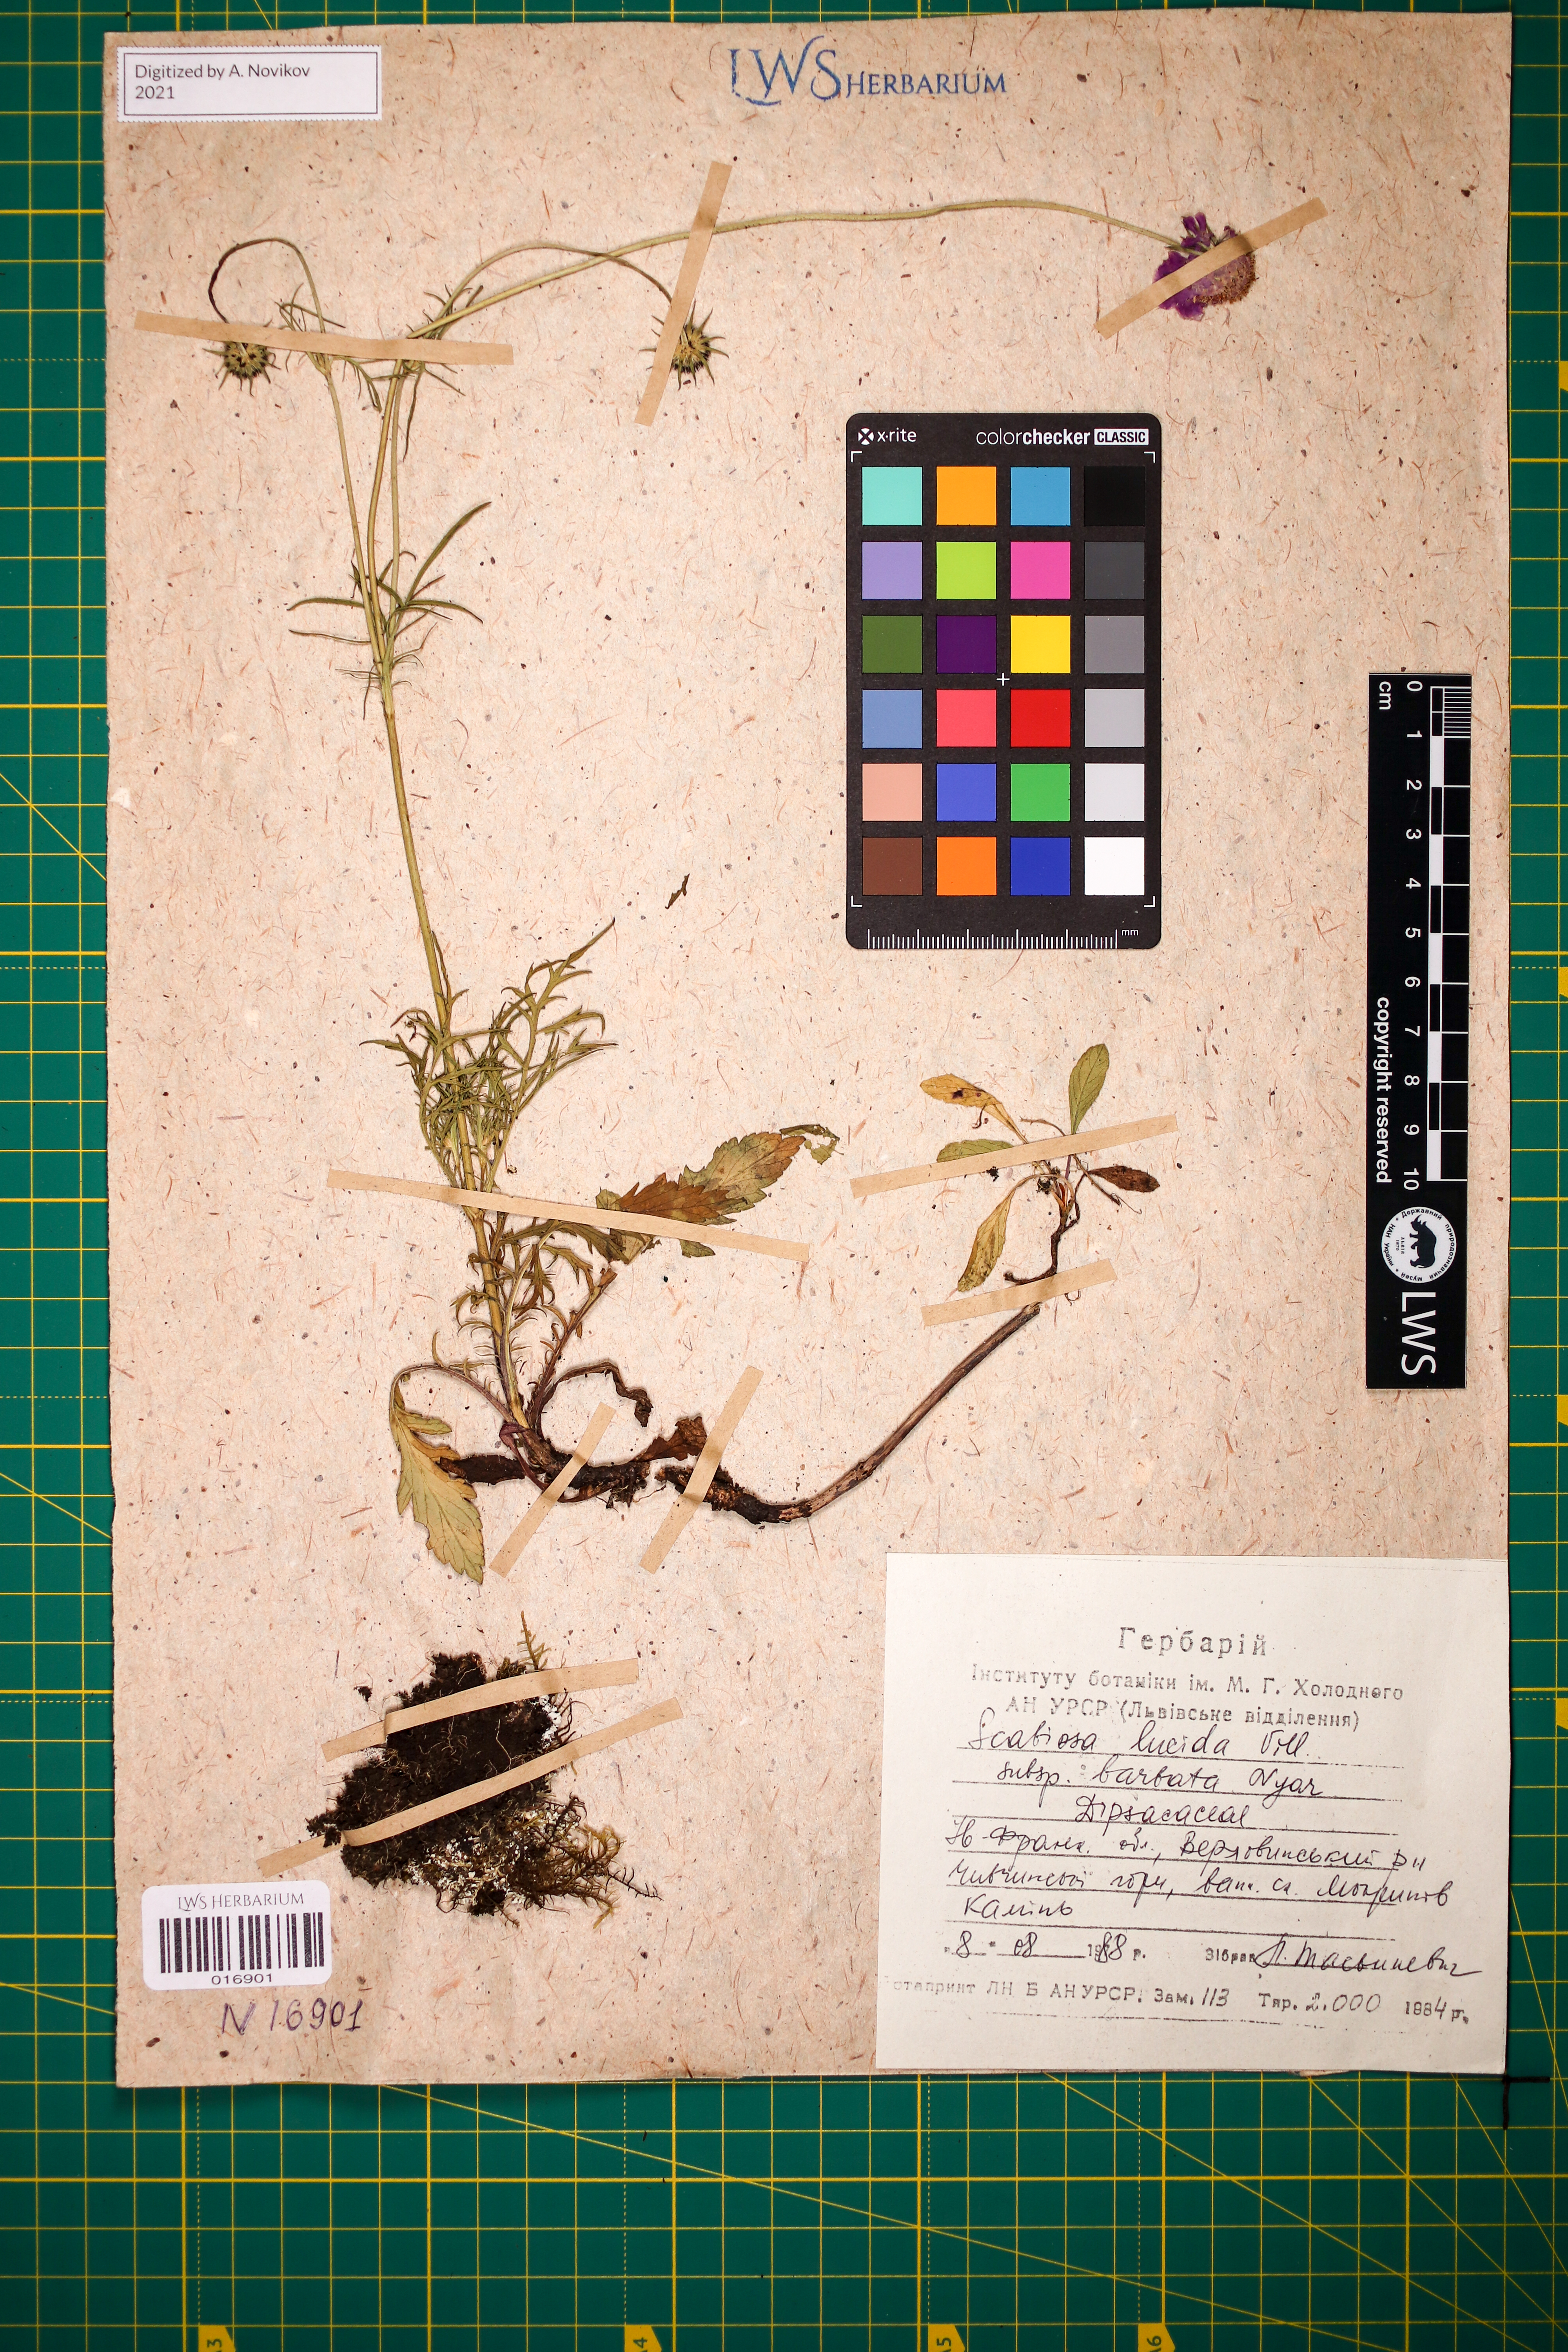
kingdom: Plantae
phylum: Tracheophyta
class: Magnoliopsida
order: Dipsacales
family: Caprifoliaceae
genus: Scabiosa
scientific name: Scabiosa lucida
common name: Shining scabious
